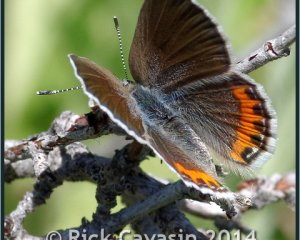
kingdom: Animalia
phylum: Arthropoda
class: Insecta
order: Lepidoptera
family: Lycaenidae
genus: Plebejus
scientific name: Plebejus lupini
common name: Lupine Blue
